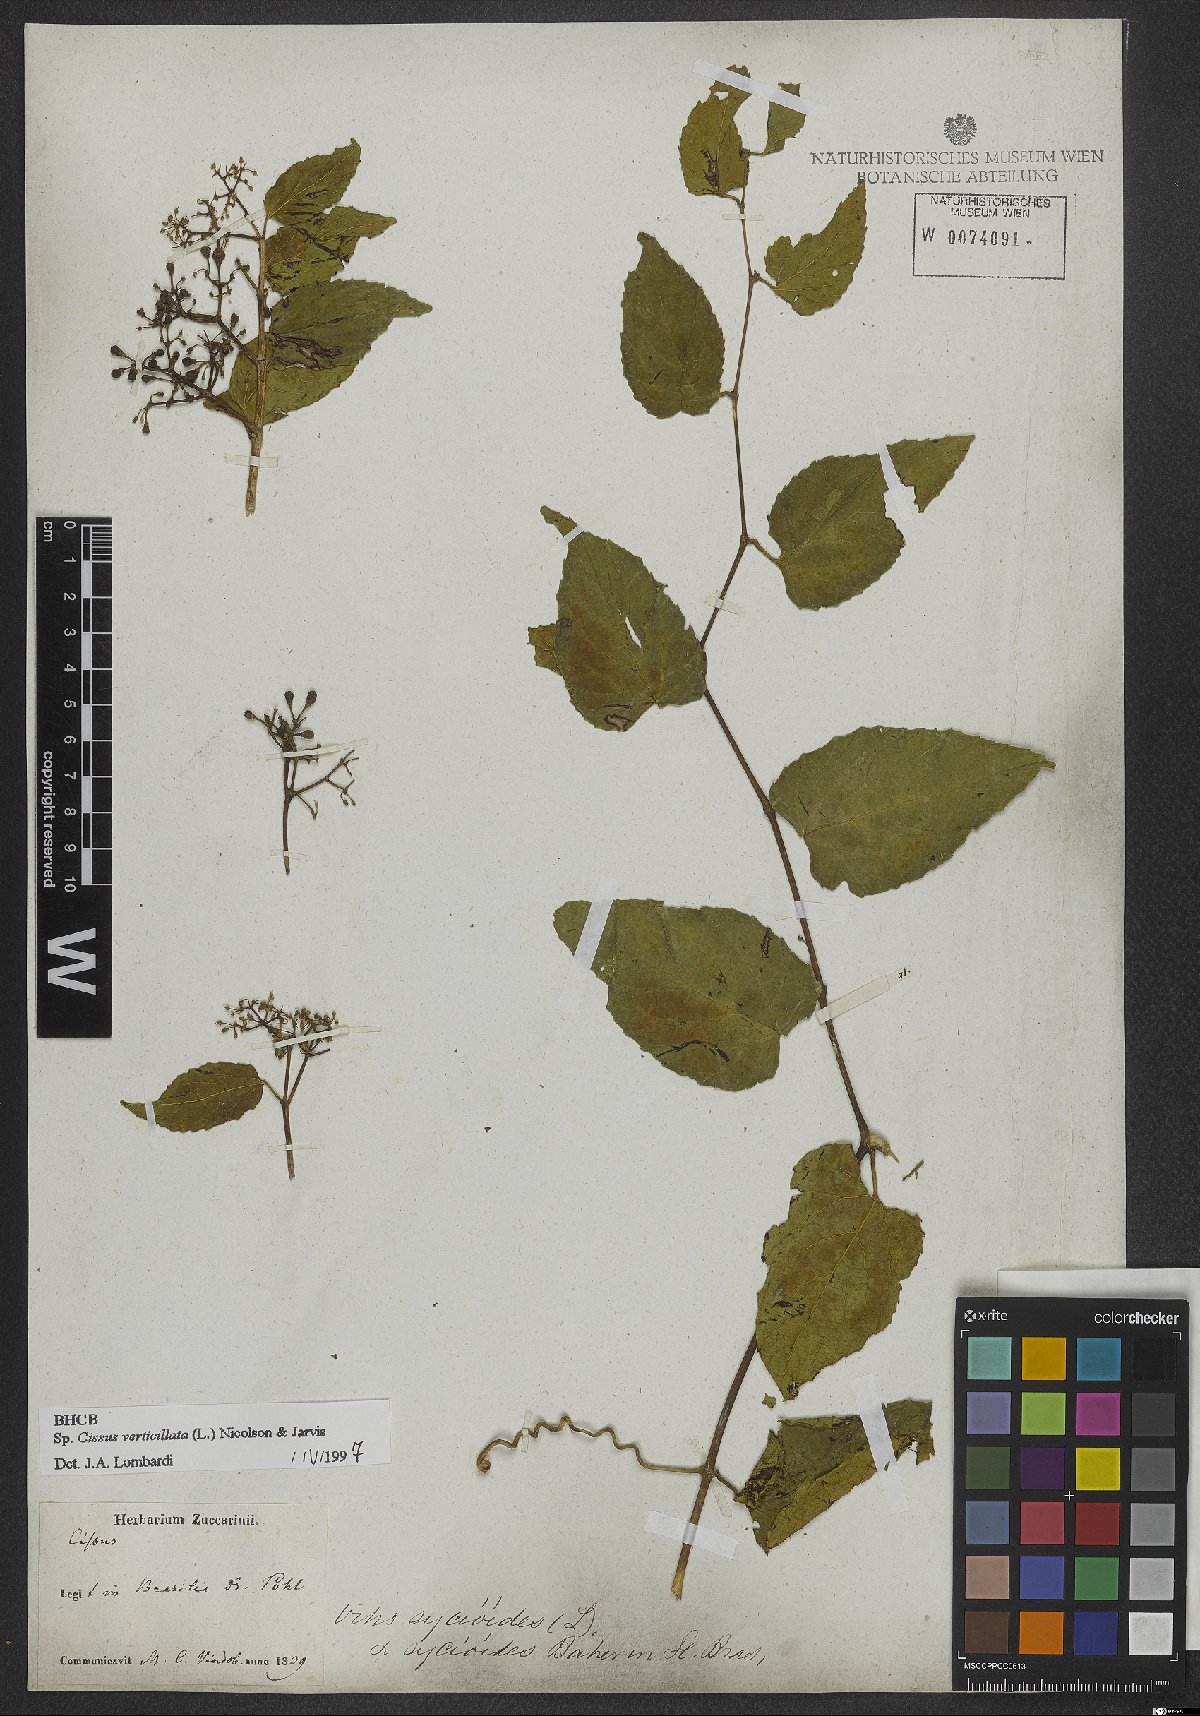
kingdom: Plantae
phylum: Tracheophyta
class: Magnoliopsida
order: Vitales
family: Vitaceae
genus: Cissus
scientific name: Cissus verticillata
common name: Princess vine
